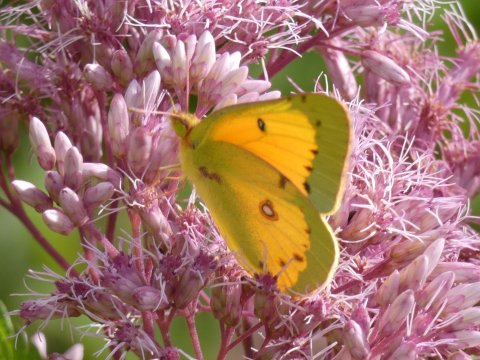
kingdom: Animalia
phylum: Arthropoda
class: Insecta
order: Lepidoptera
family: Pieridae
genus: Colias
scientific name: Colias eurytheme
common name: Orange Sulphur
